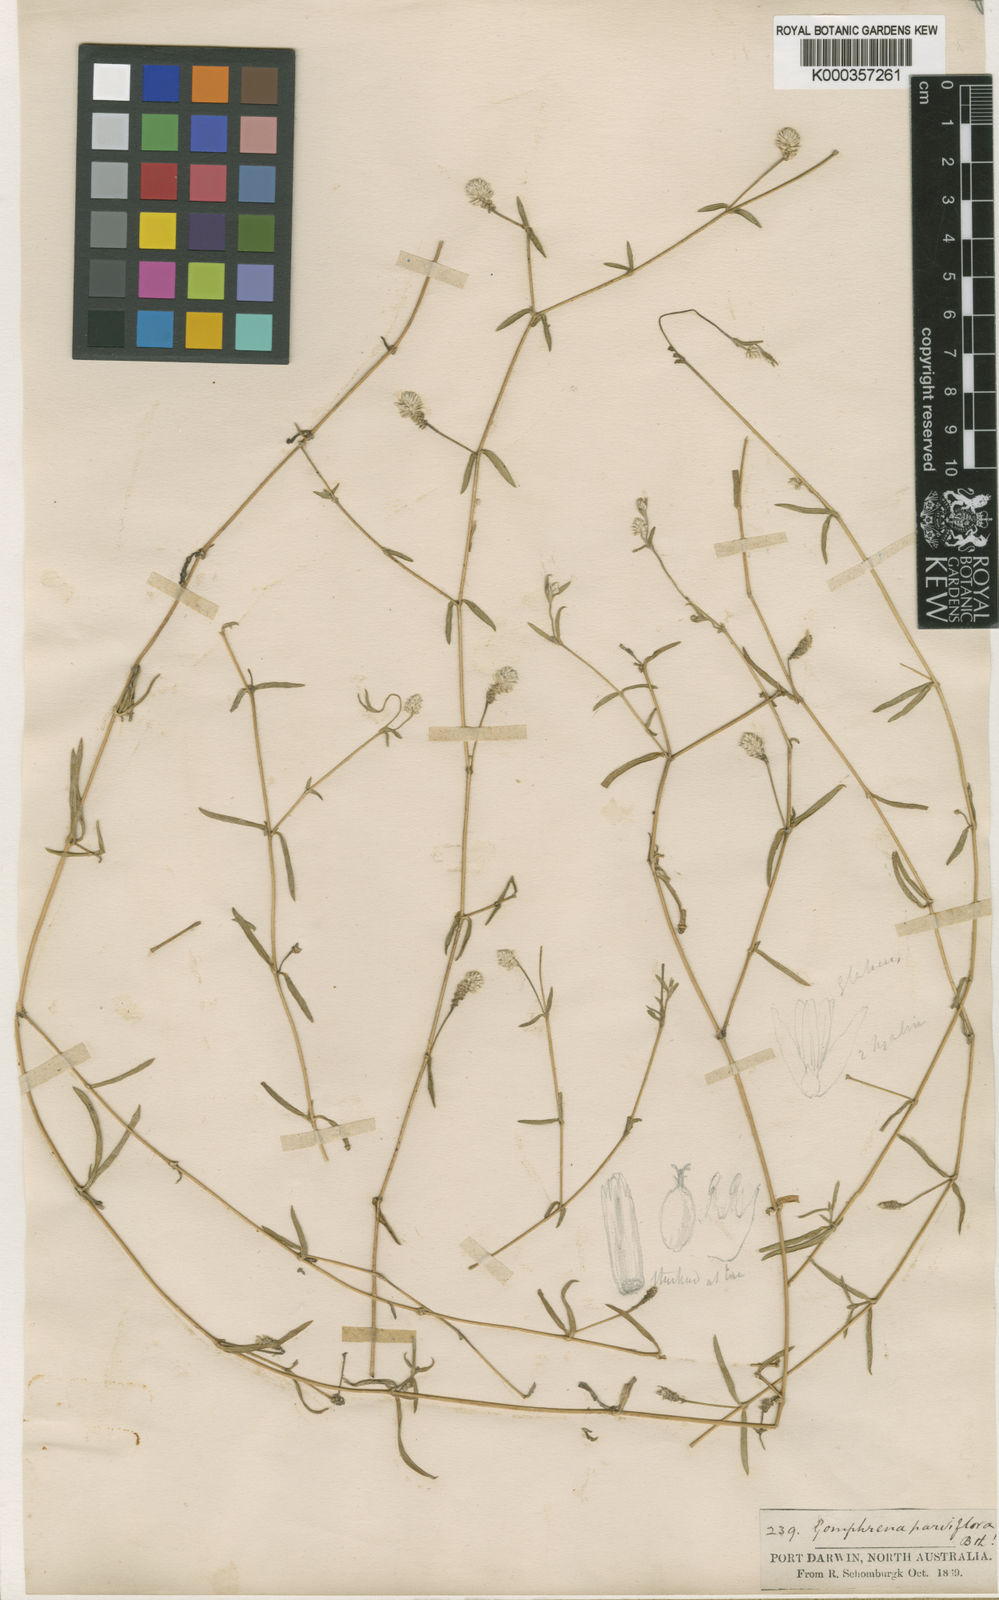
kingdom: Plantae
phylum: Tracheophyta
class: Magnoliopsida
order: Caryophyllales
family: Amaranthaceae
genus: Gomphrena
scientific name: Gomphrena parviflora
